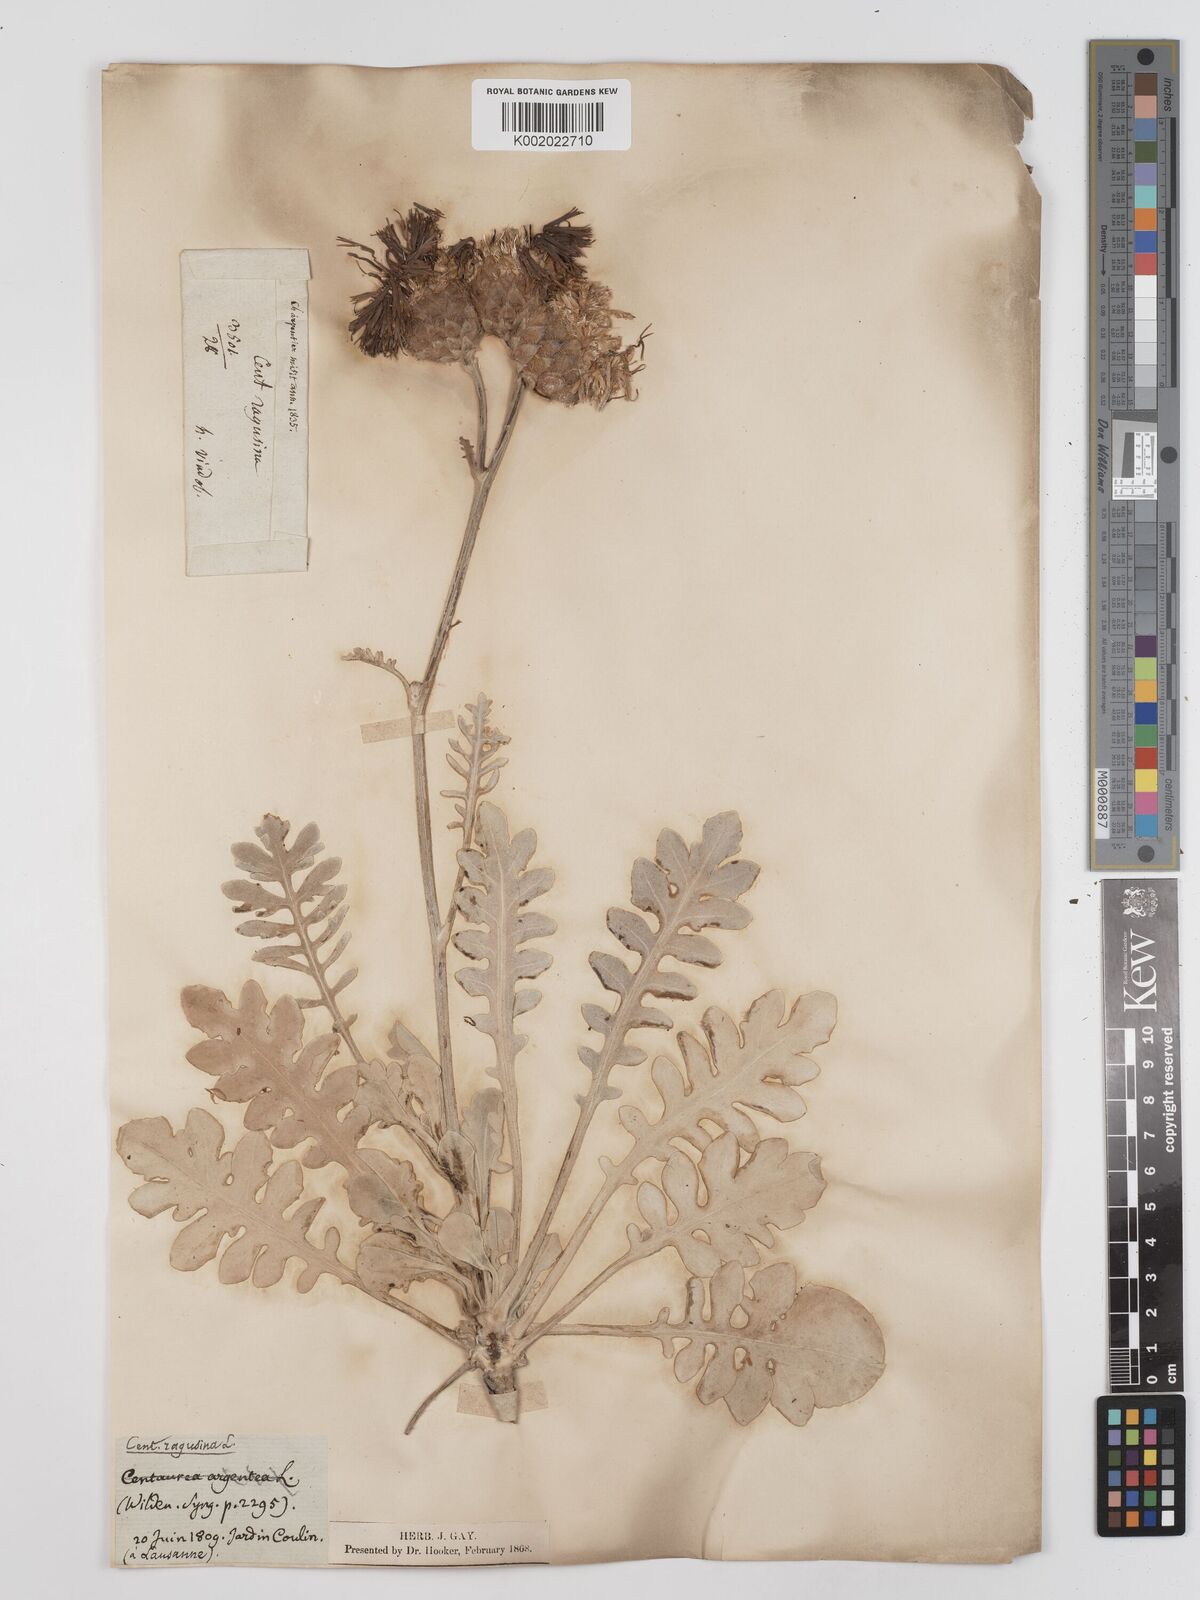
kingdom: Plantae
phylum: Tracheophyta
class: Magnoliopsida
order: Asterales
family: Asteraceae
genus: Centaurea
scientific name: Centaurea ragusina
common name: Dusty-miller
